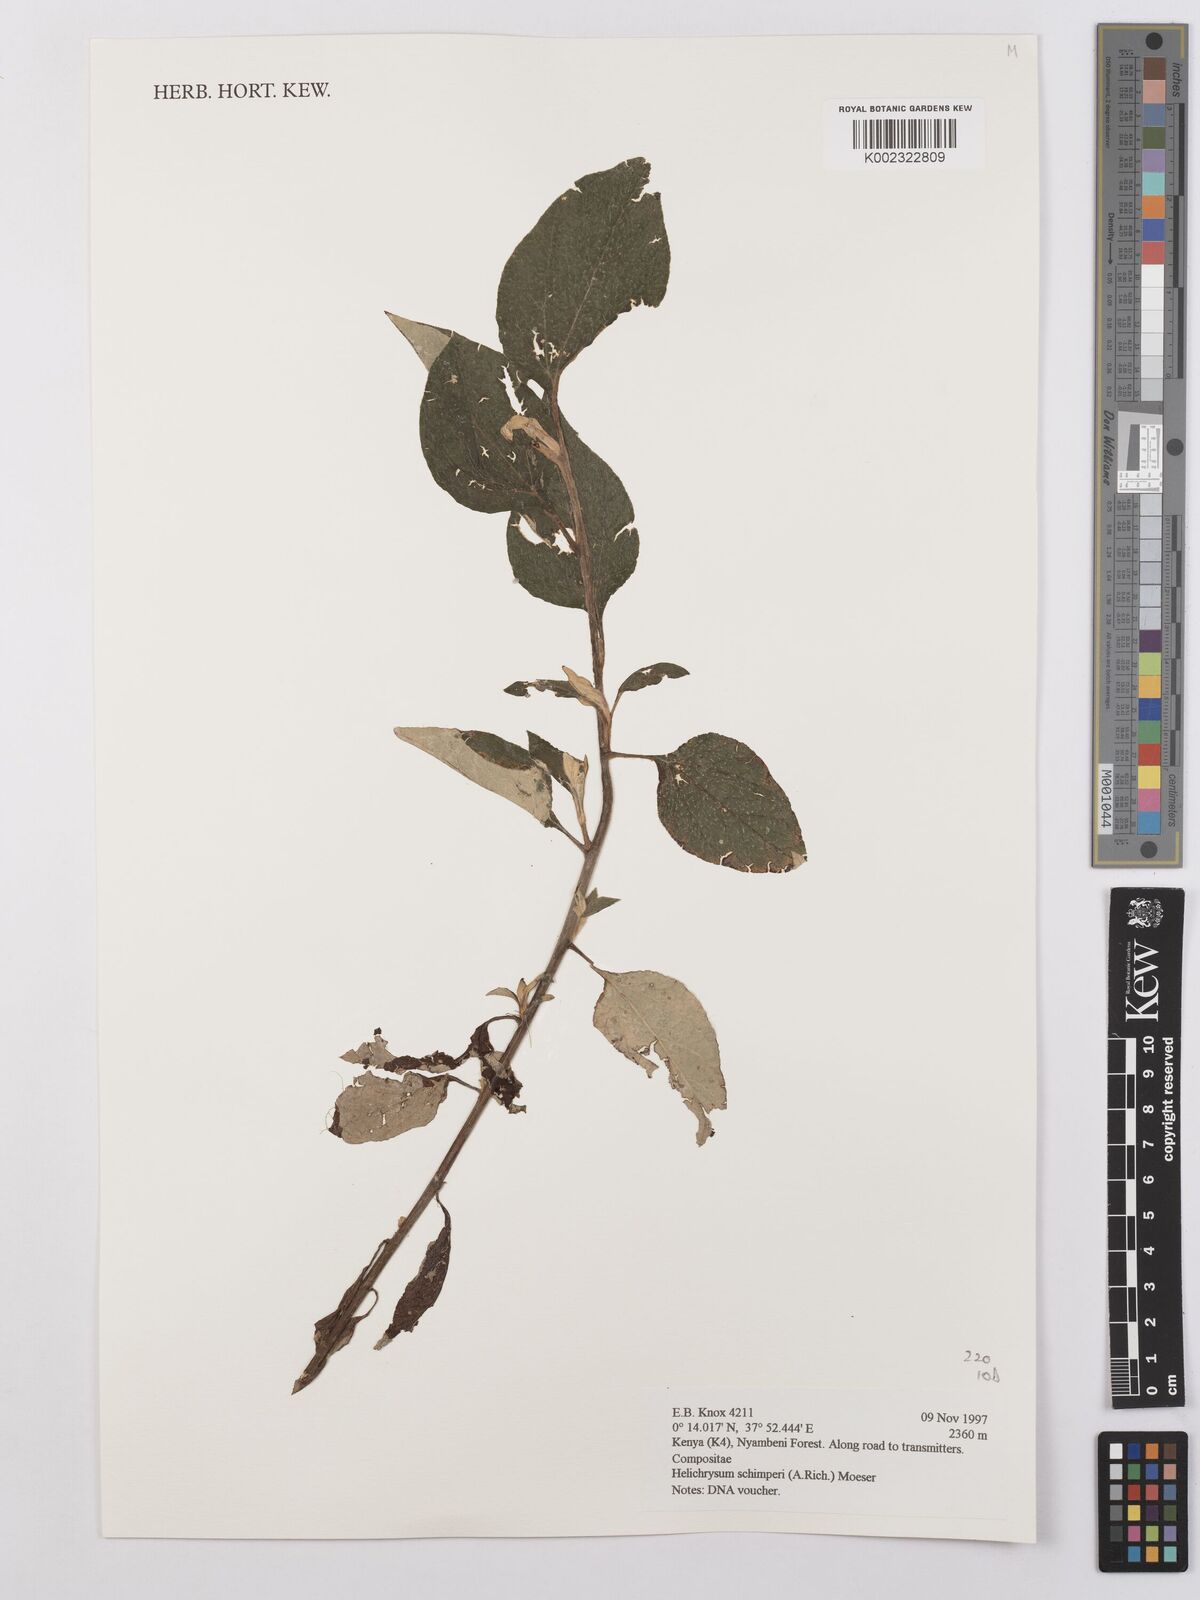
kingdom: Plantae
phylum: Tracheophyta
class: Magnoliopsida
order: Asterales
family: Asteraceae
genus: Helichrysum
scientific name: Helichrysum schimperi
